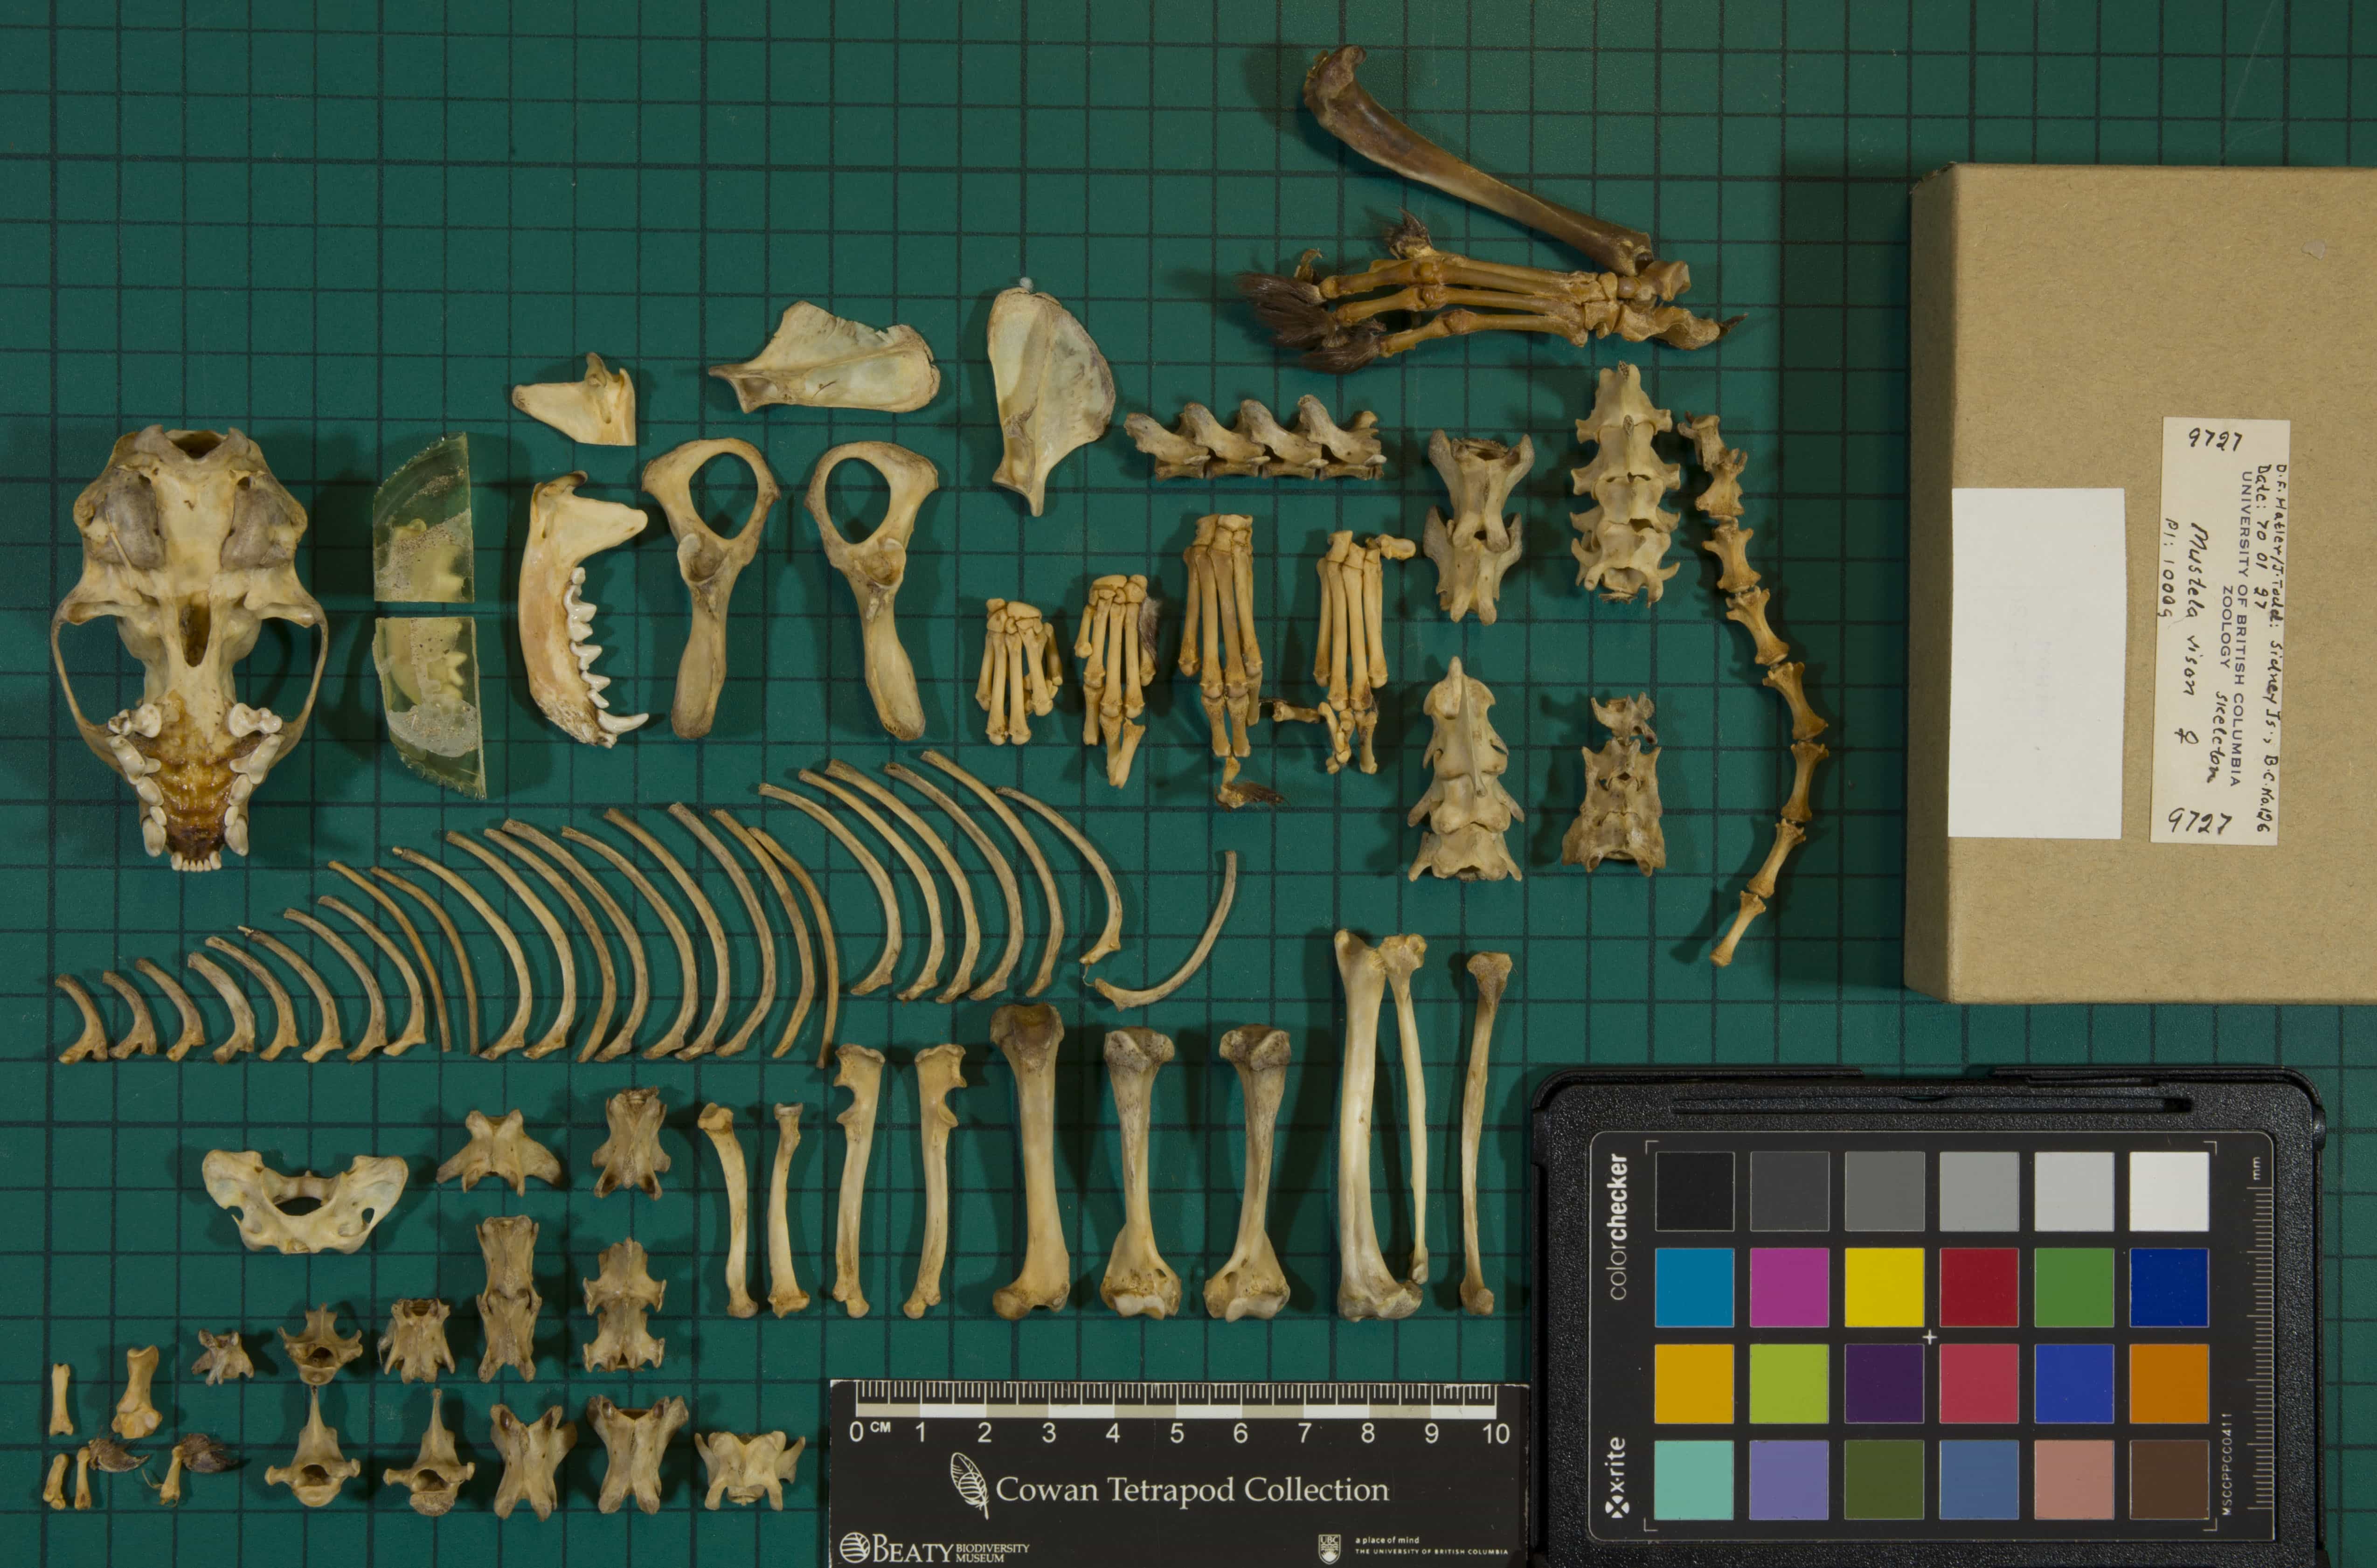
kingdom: Animalia
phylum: Chordata
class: Mammalia
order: Carnivora
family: Mustelidae
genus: Mustela
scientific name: Mustela vison
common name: American Mink
